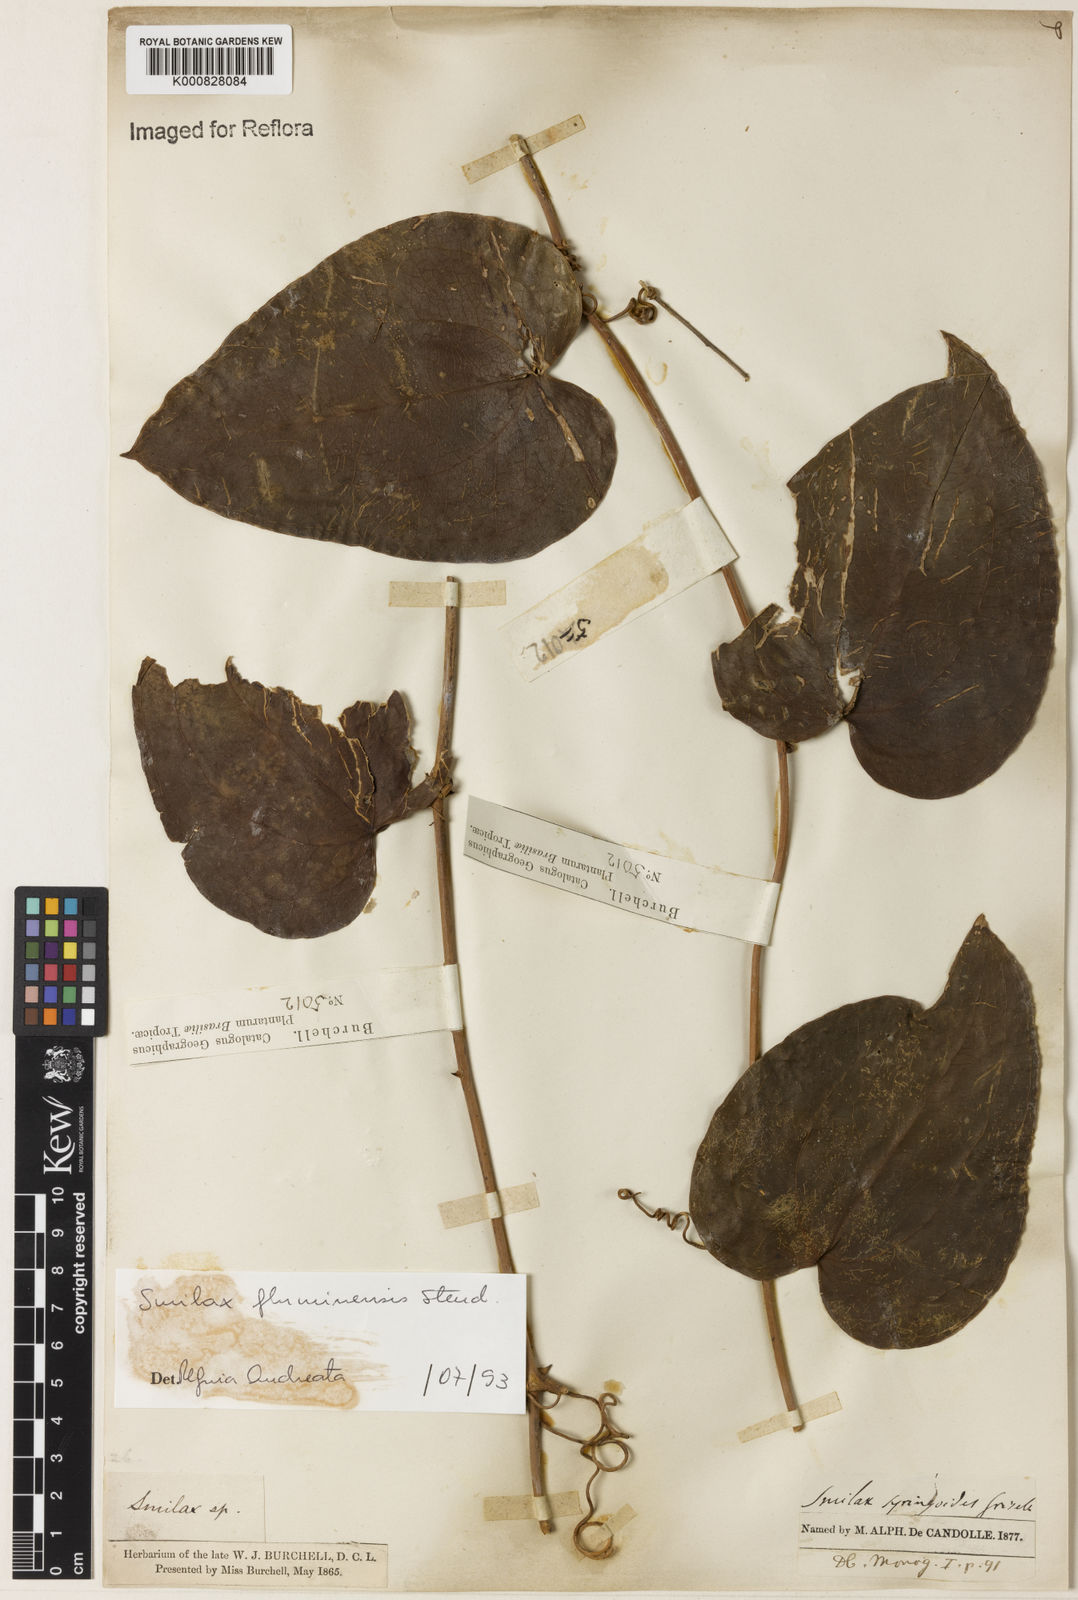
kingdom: Plantae
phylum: Tracheophyta
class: Liliopsida
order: Liliales
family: Smilacaceae
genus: Smilax
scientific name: Smilax fluminensis
